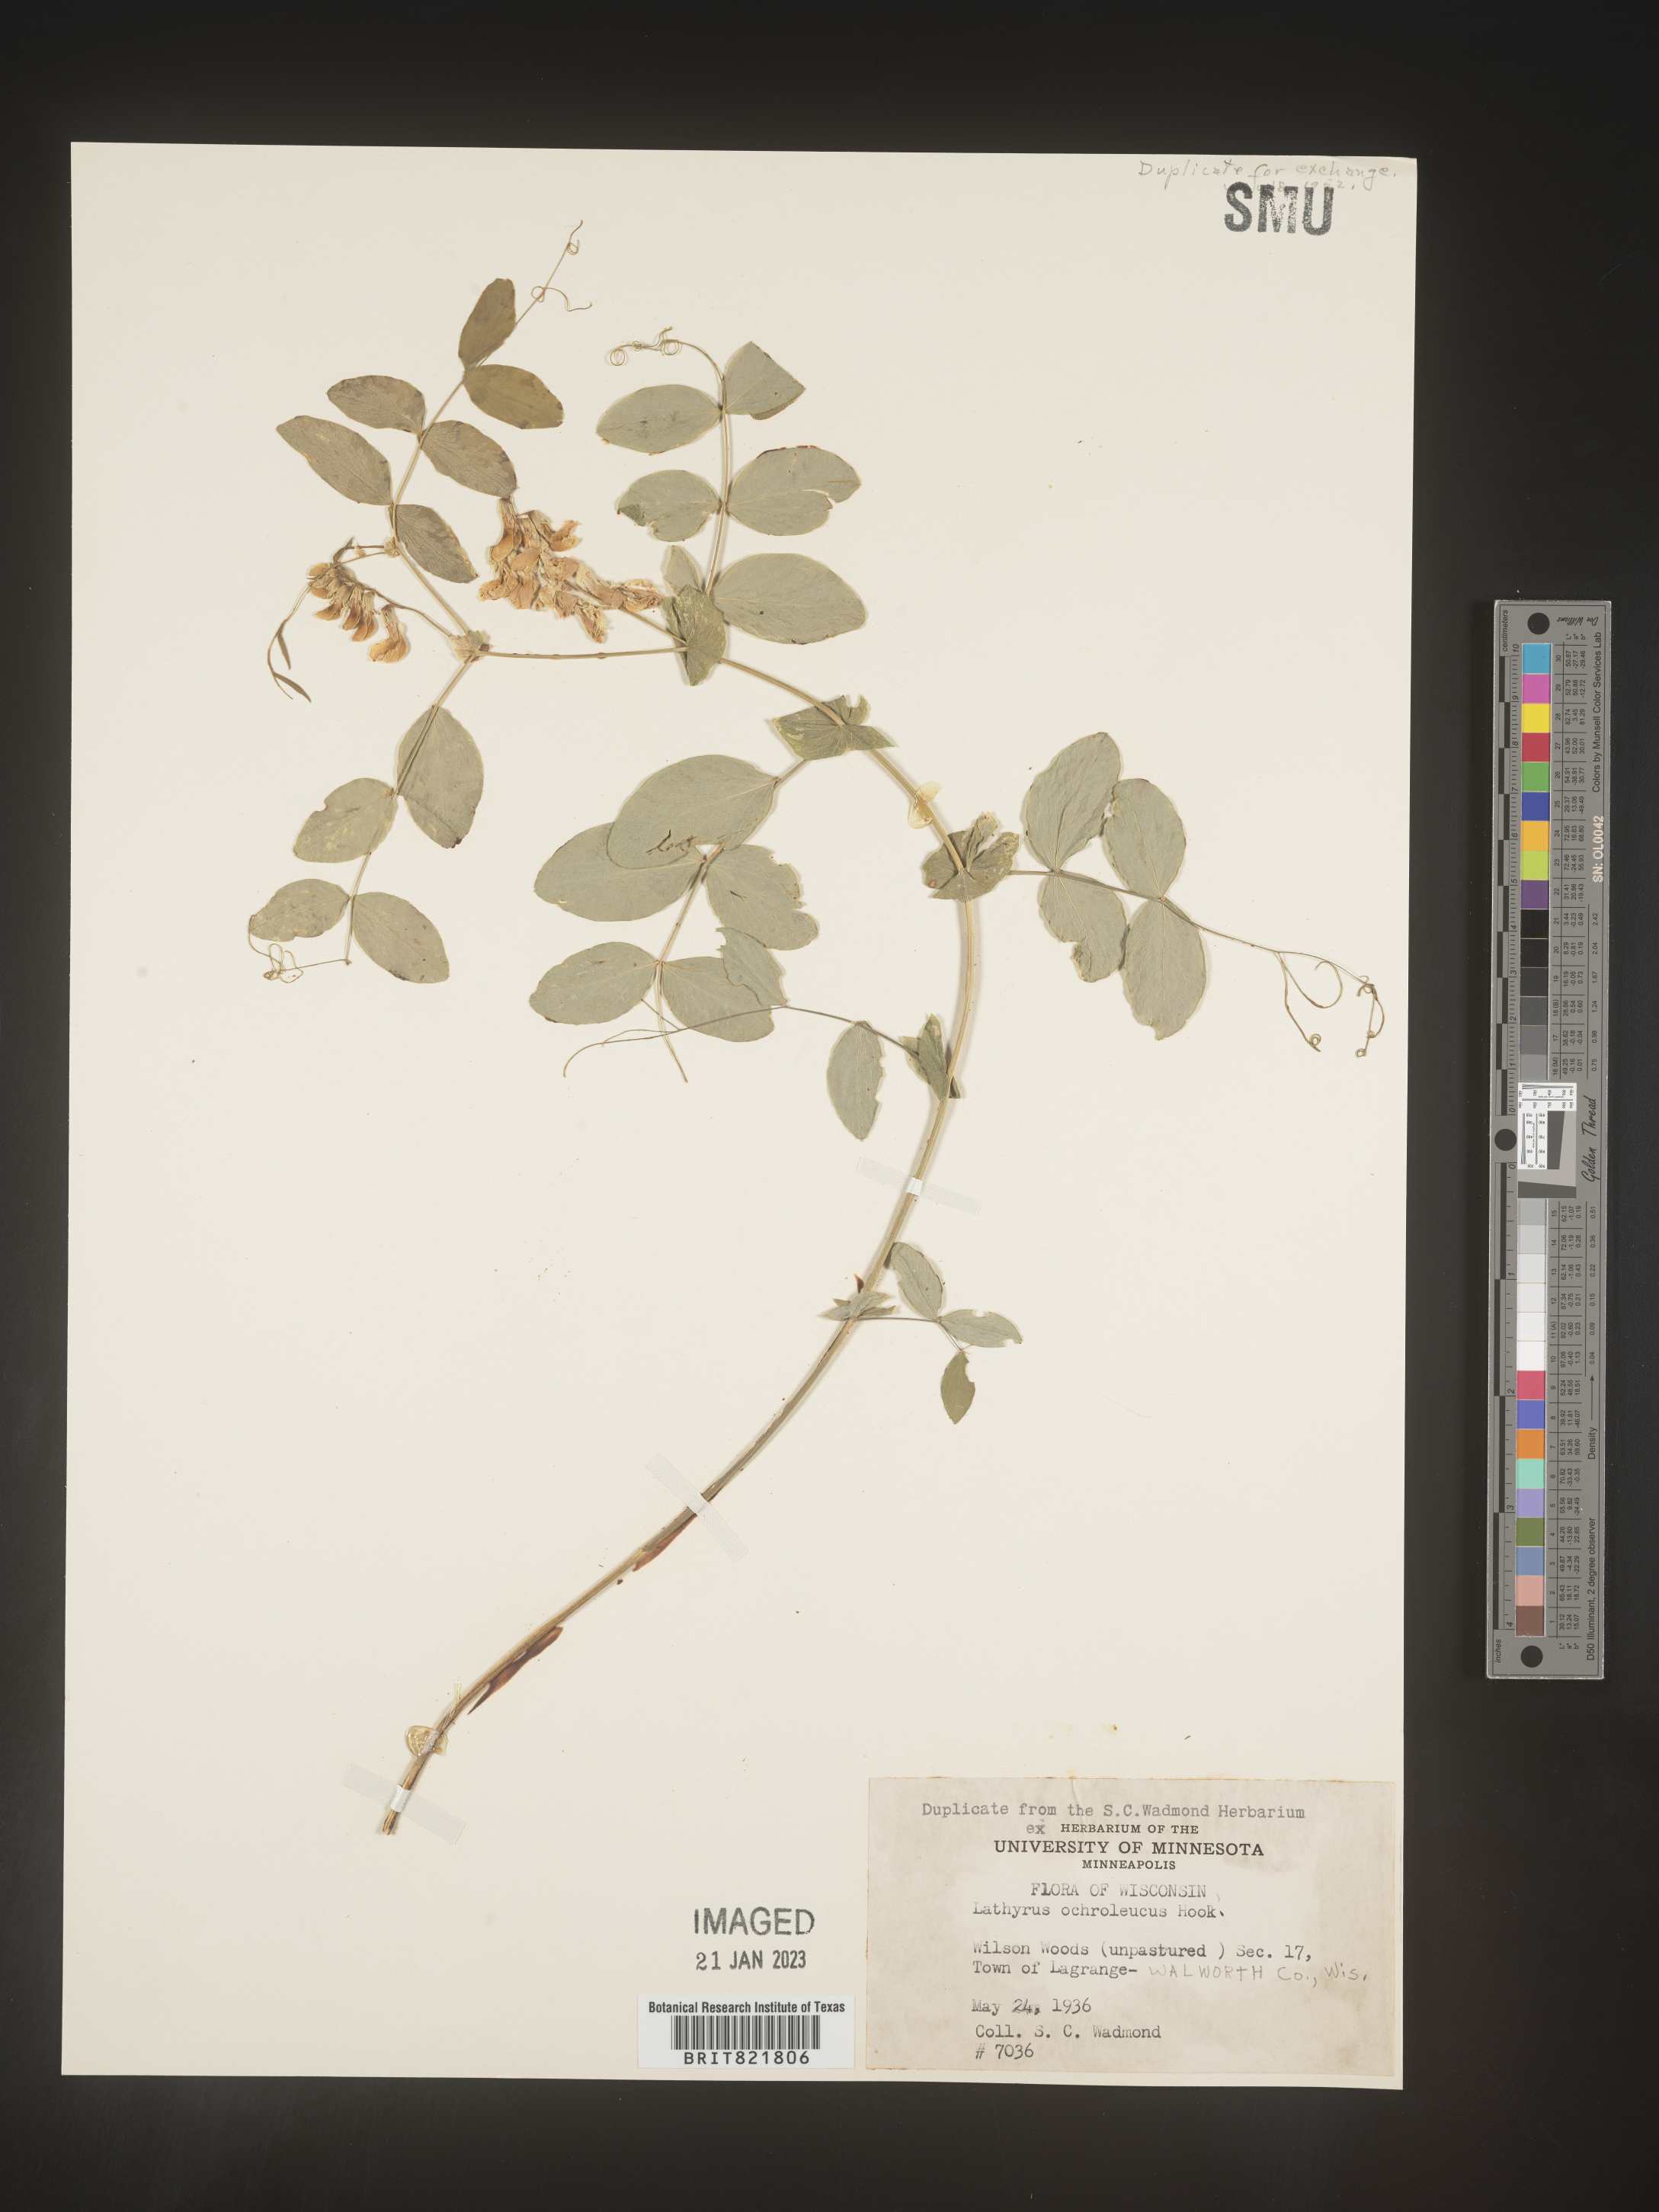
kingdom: Plantae
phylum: Tracheophyta
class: Magnoliopsida
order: Fabales
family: Fabaceae
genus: Lathyrus
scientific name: Lathyrus
